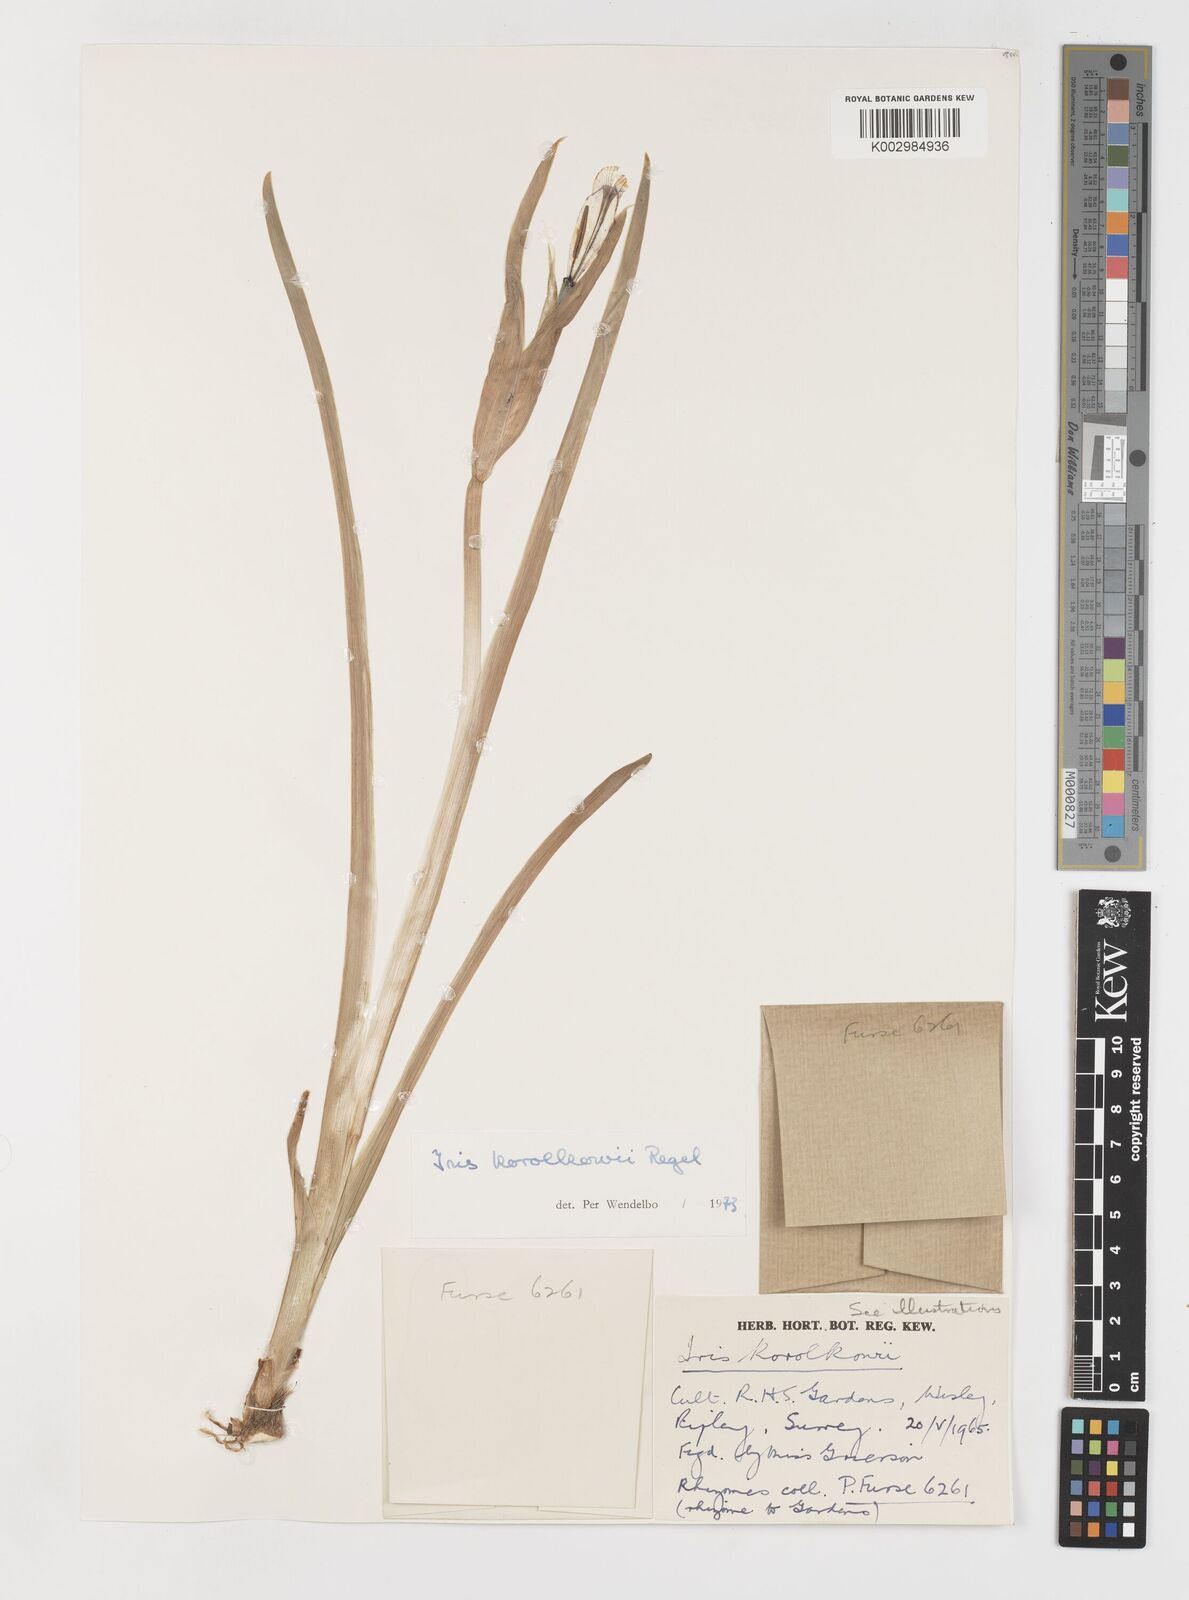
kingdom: Plantae
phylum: Tracheophyta
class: Liliopsida
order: Asparagales
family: Iridaceae
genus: Iris
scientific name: Iris korolkowii
